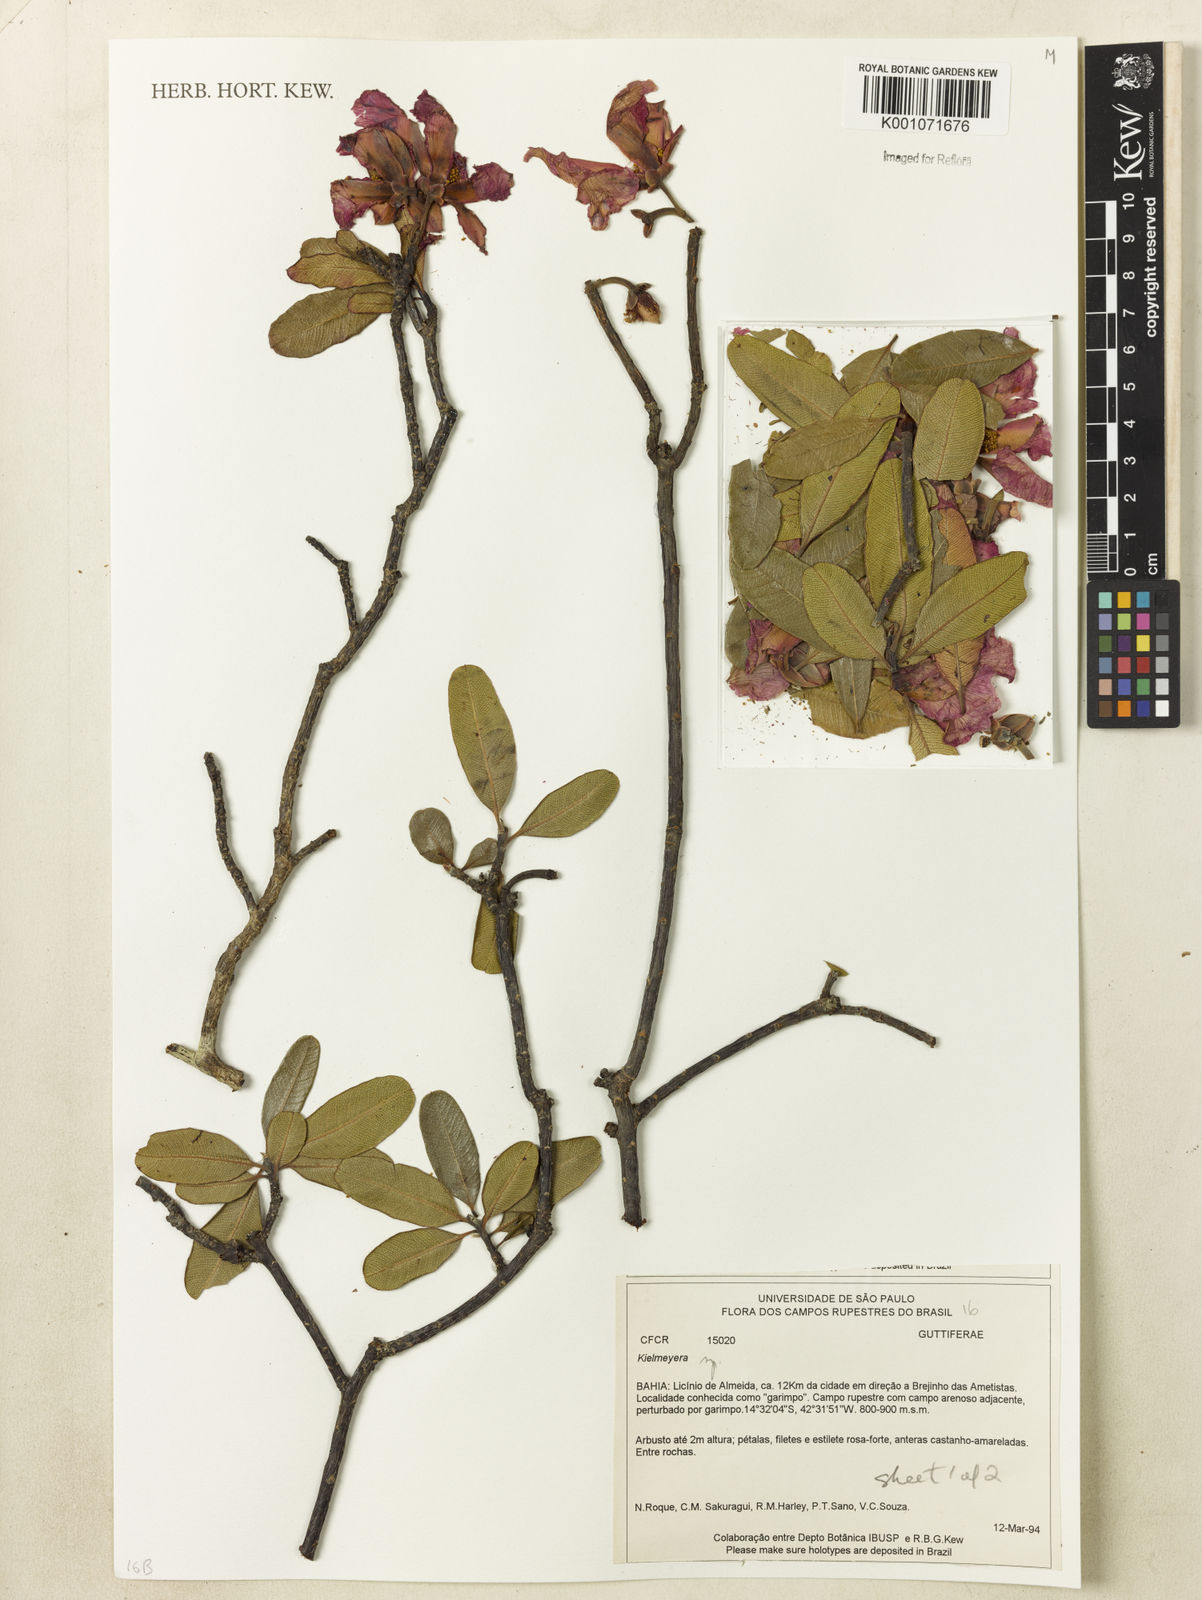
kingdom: Plantae
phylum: Tracheophyta
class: Magnoliopsida
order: Malpighiales
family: Calophyllaceae
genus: Kielmeyera
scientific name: Kielmeyera
